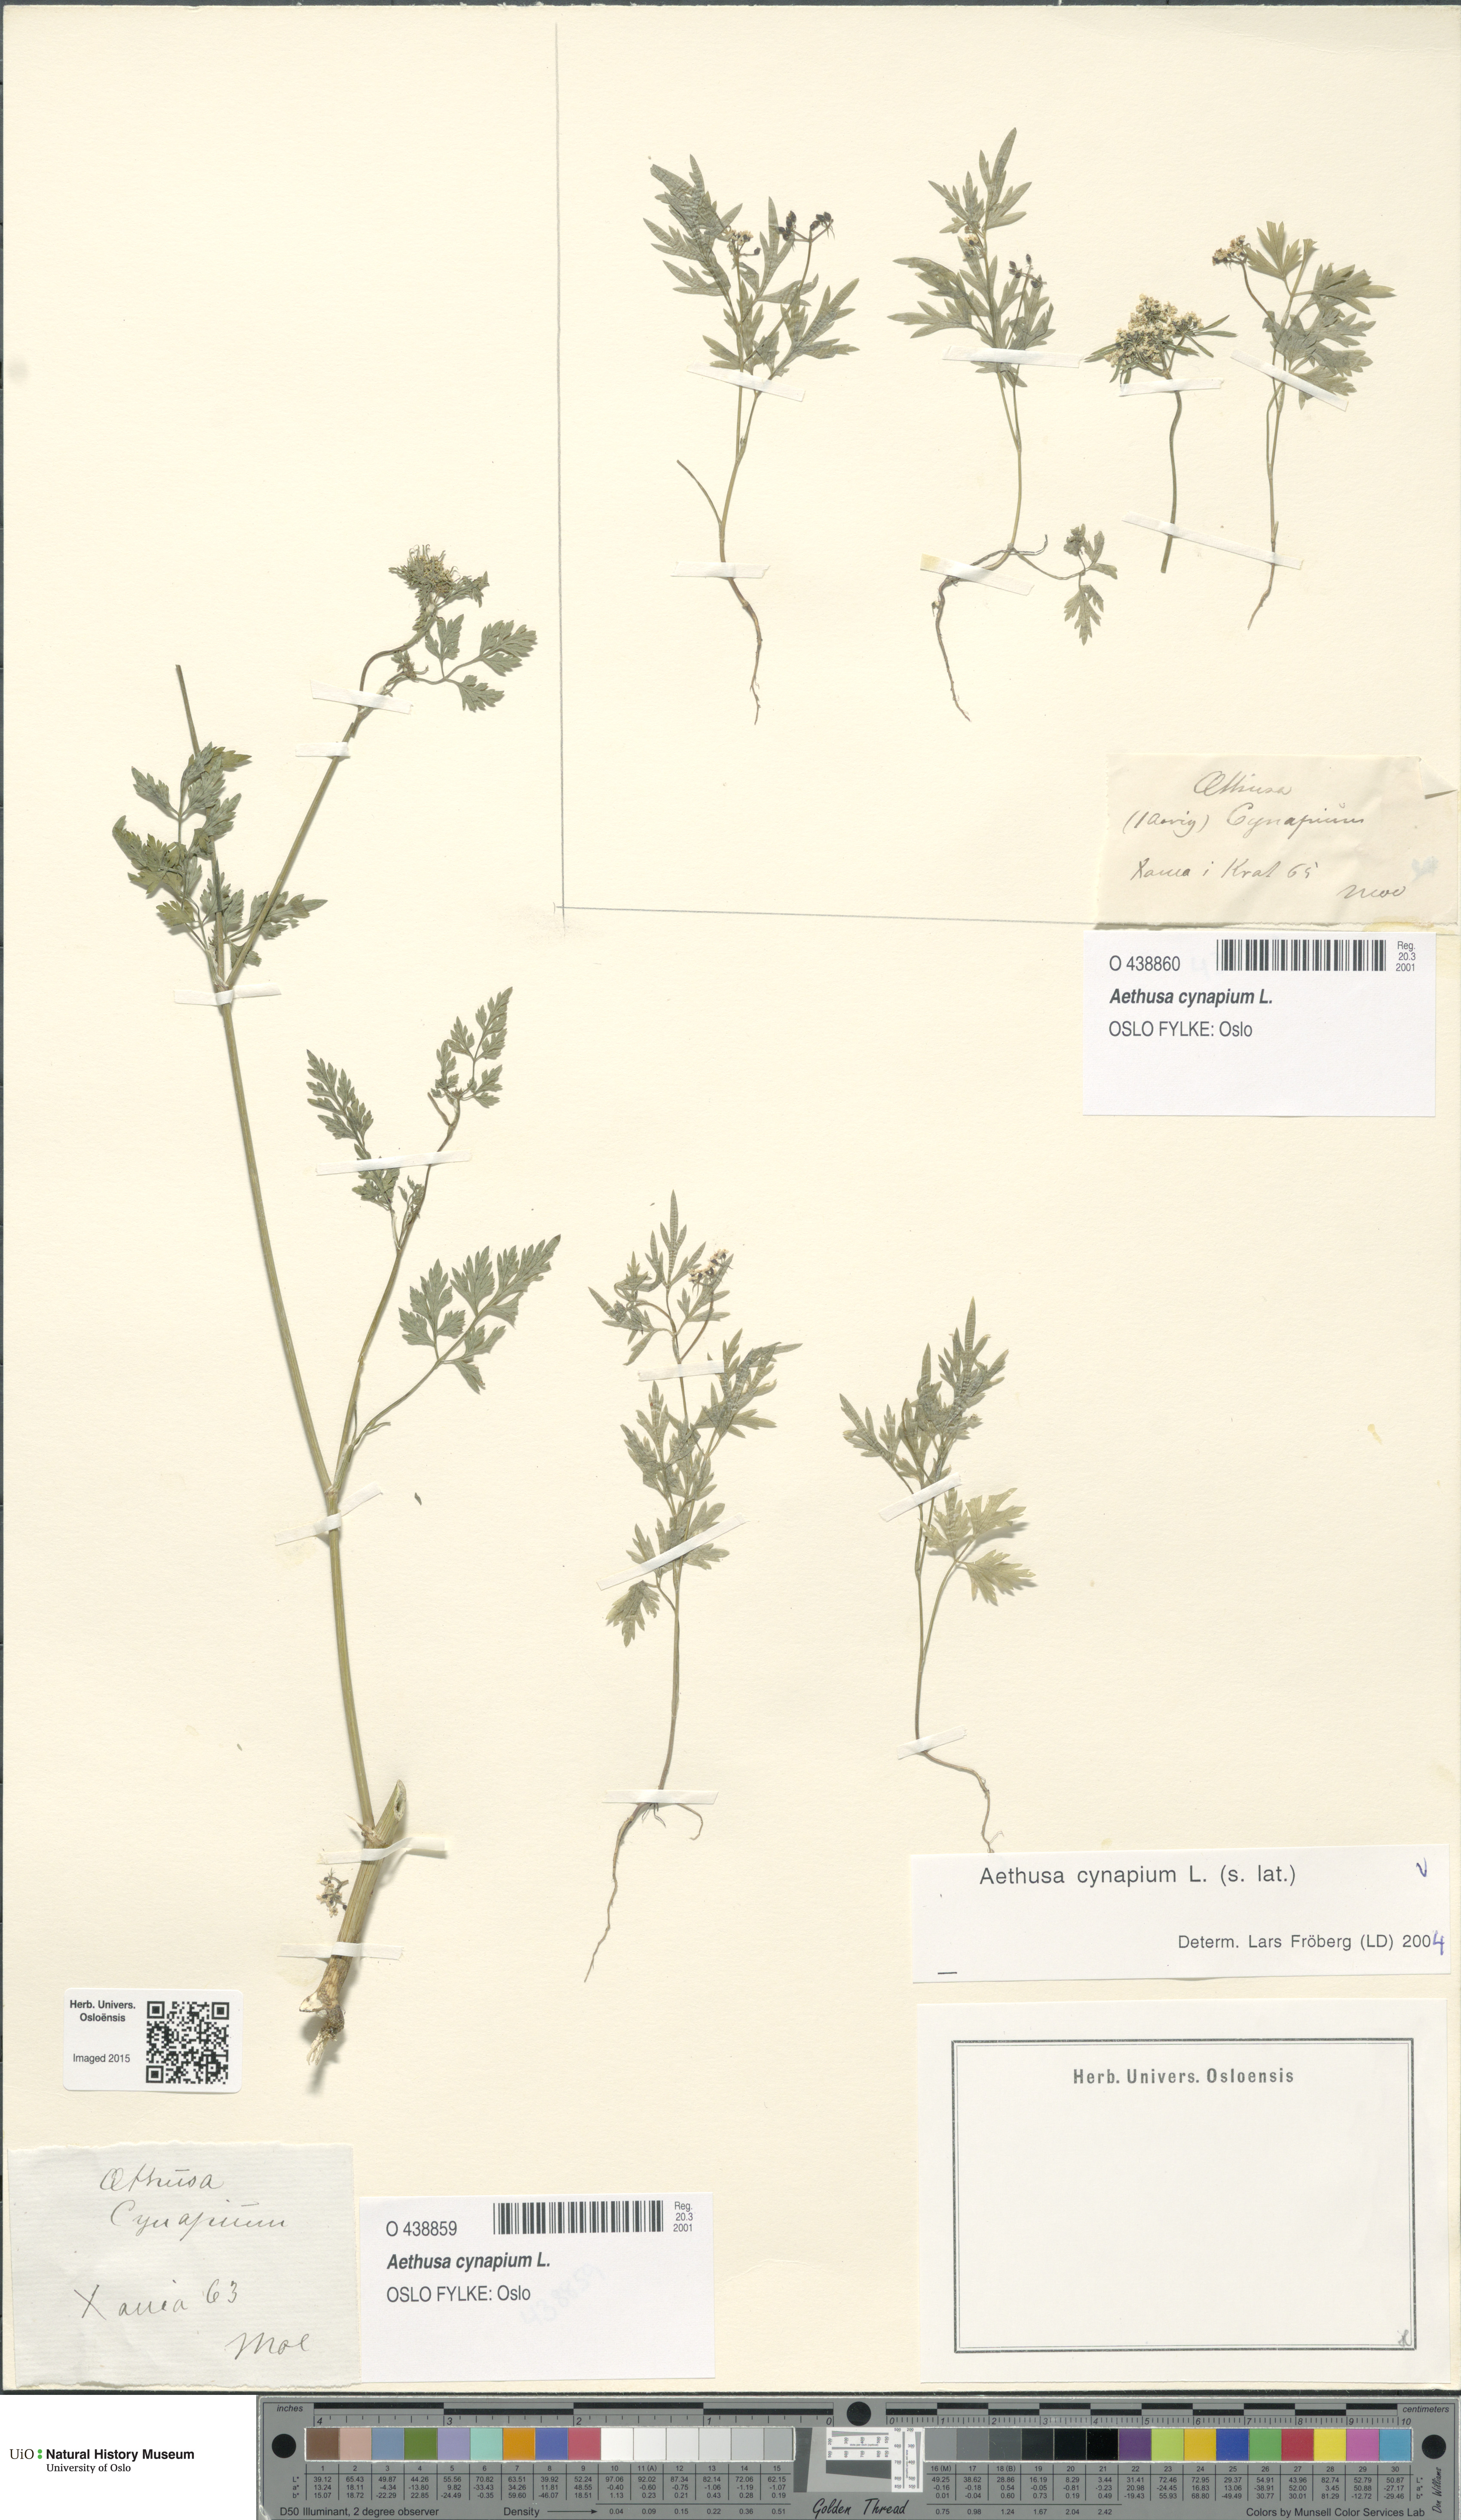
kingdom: Plantae
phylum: Tracheophyta
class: Magnoliopsida
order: Apiales
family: Apiaceae
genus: Aethusa
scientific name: Aethusa cynapium
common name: Fool's parsley
